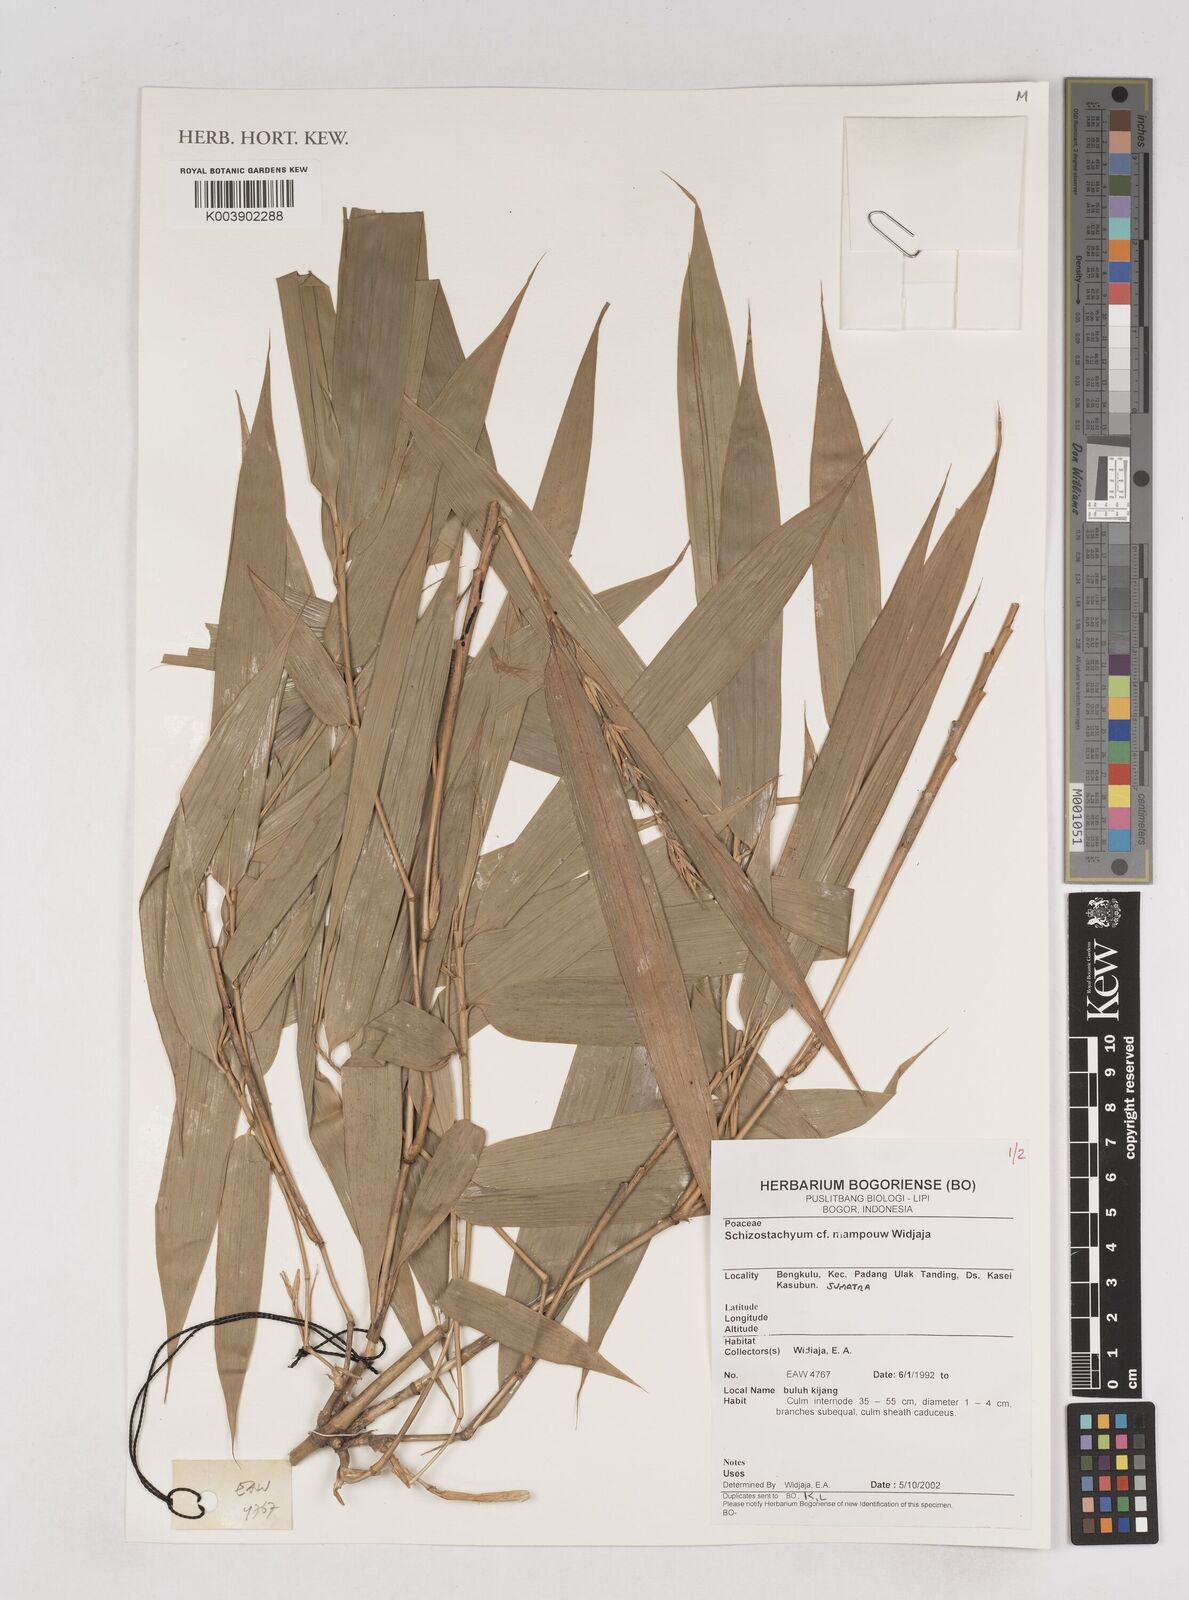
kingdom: Plantae
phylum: Tracheophyta
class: Liliopsida
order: Poales
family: Poaceae
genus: Schizostachyum
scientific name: Schizostachyum mampouw
